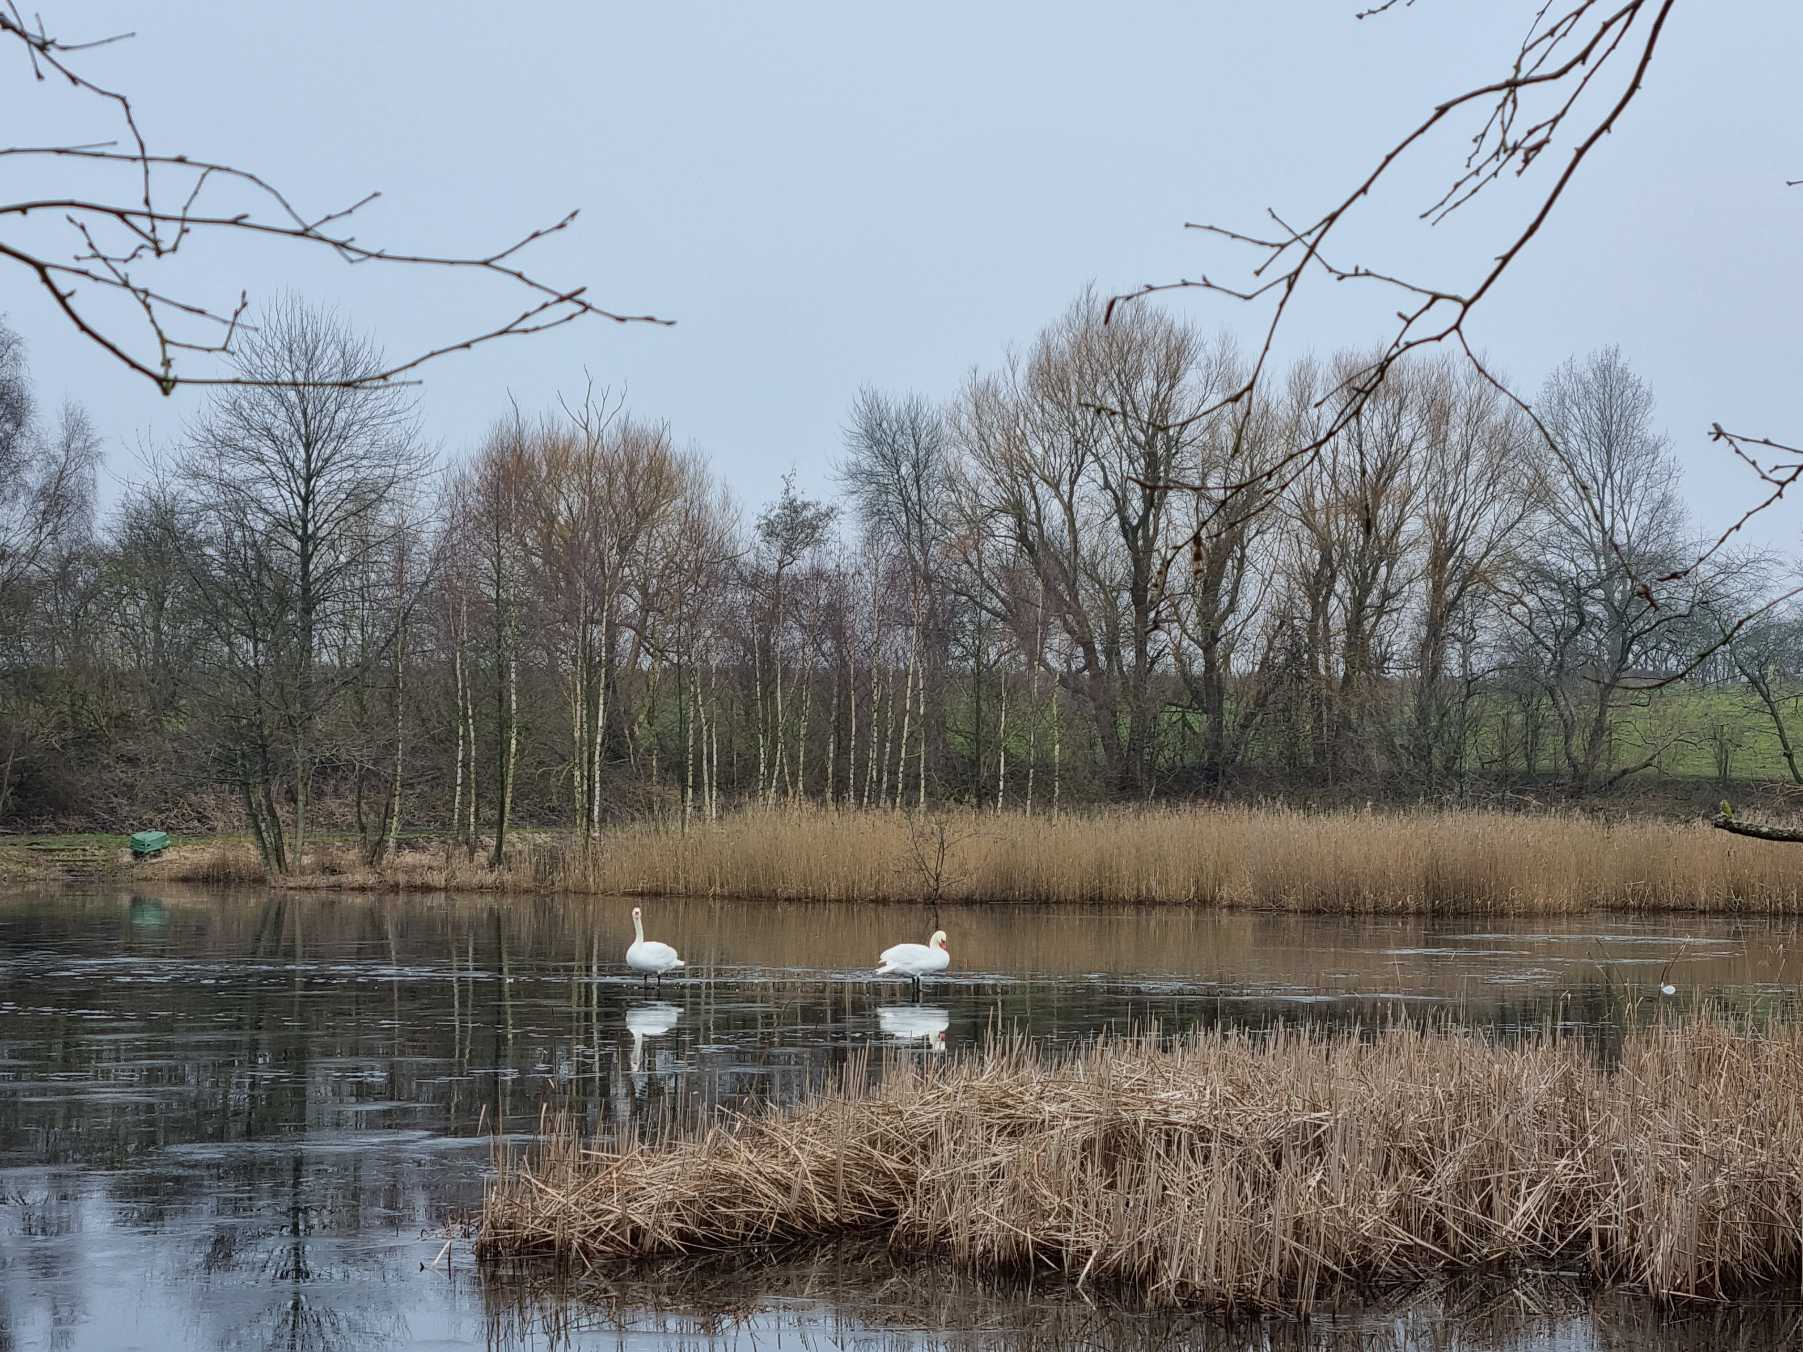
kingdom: Animalia
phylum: Chordata
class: Aves
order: Anseriformes
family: Anatidae
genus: Cygnus
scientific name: Cygnus olor
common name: Knopsvane
